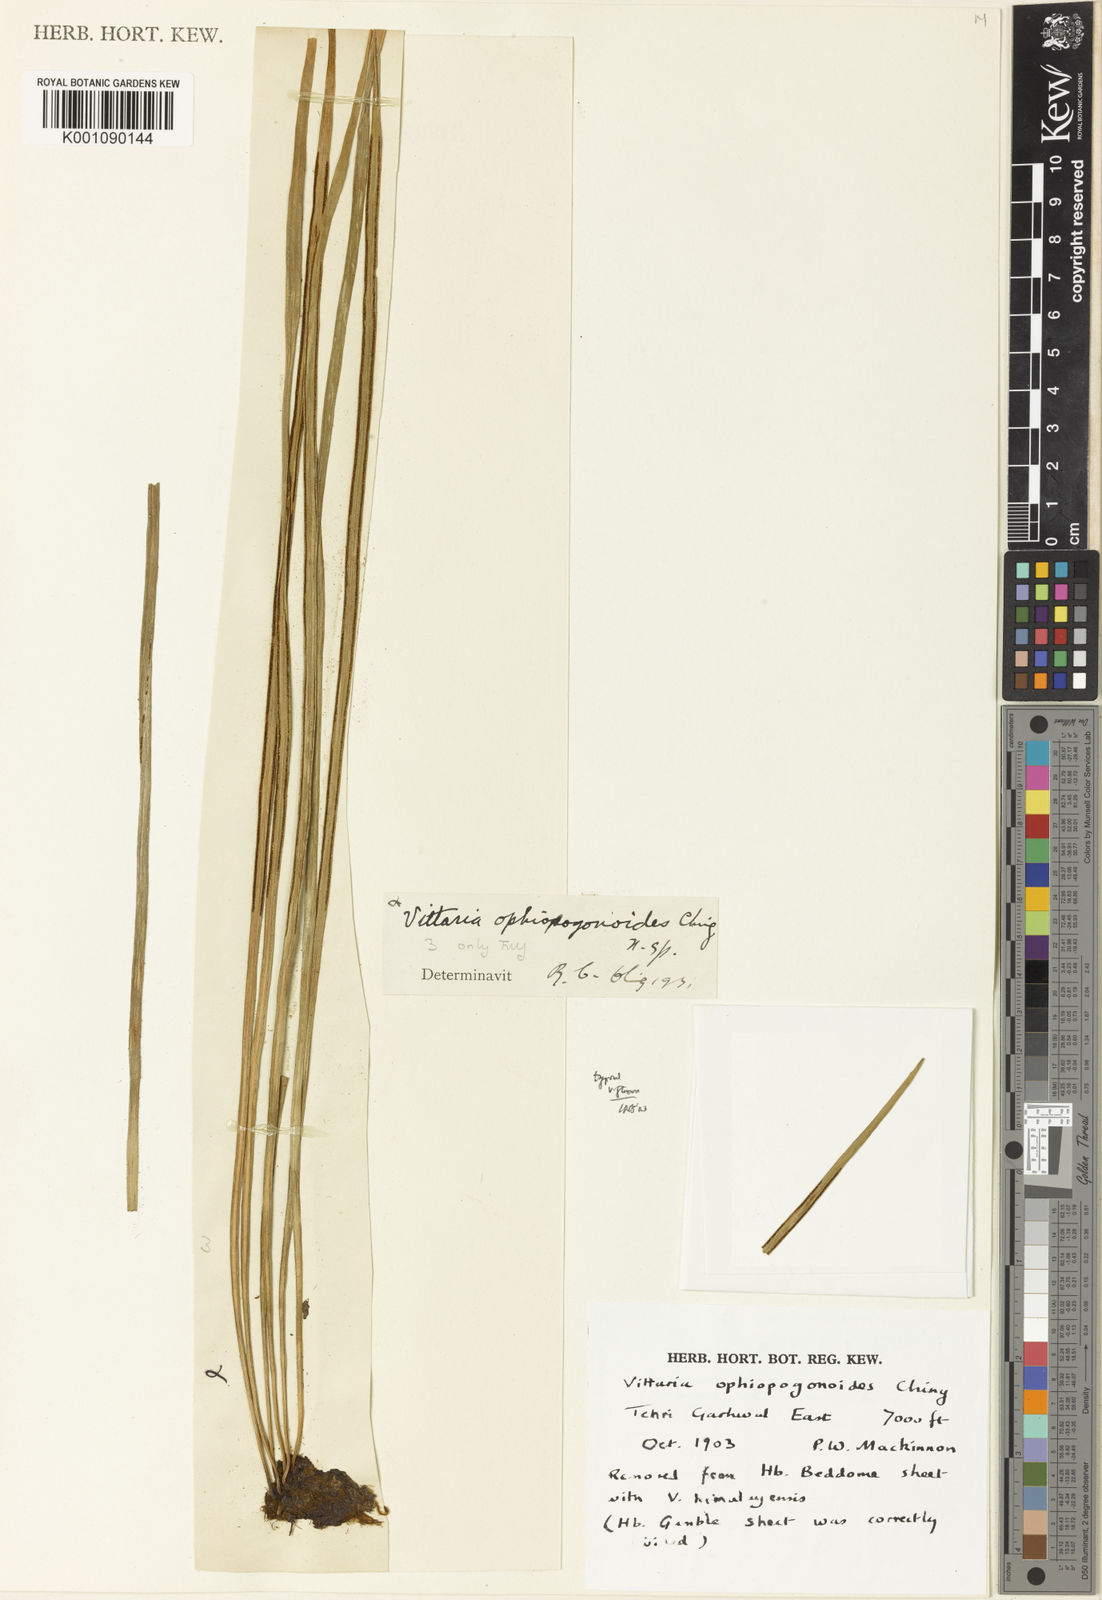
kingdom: Plantae
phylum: Tracheophyta
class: Polypodiopsida
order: Polypodiales
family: Pteridaceae
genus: Haplopteris
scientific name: Haplopteris flexuosa
